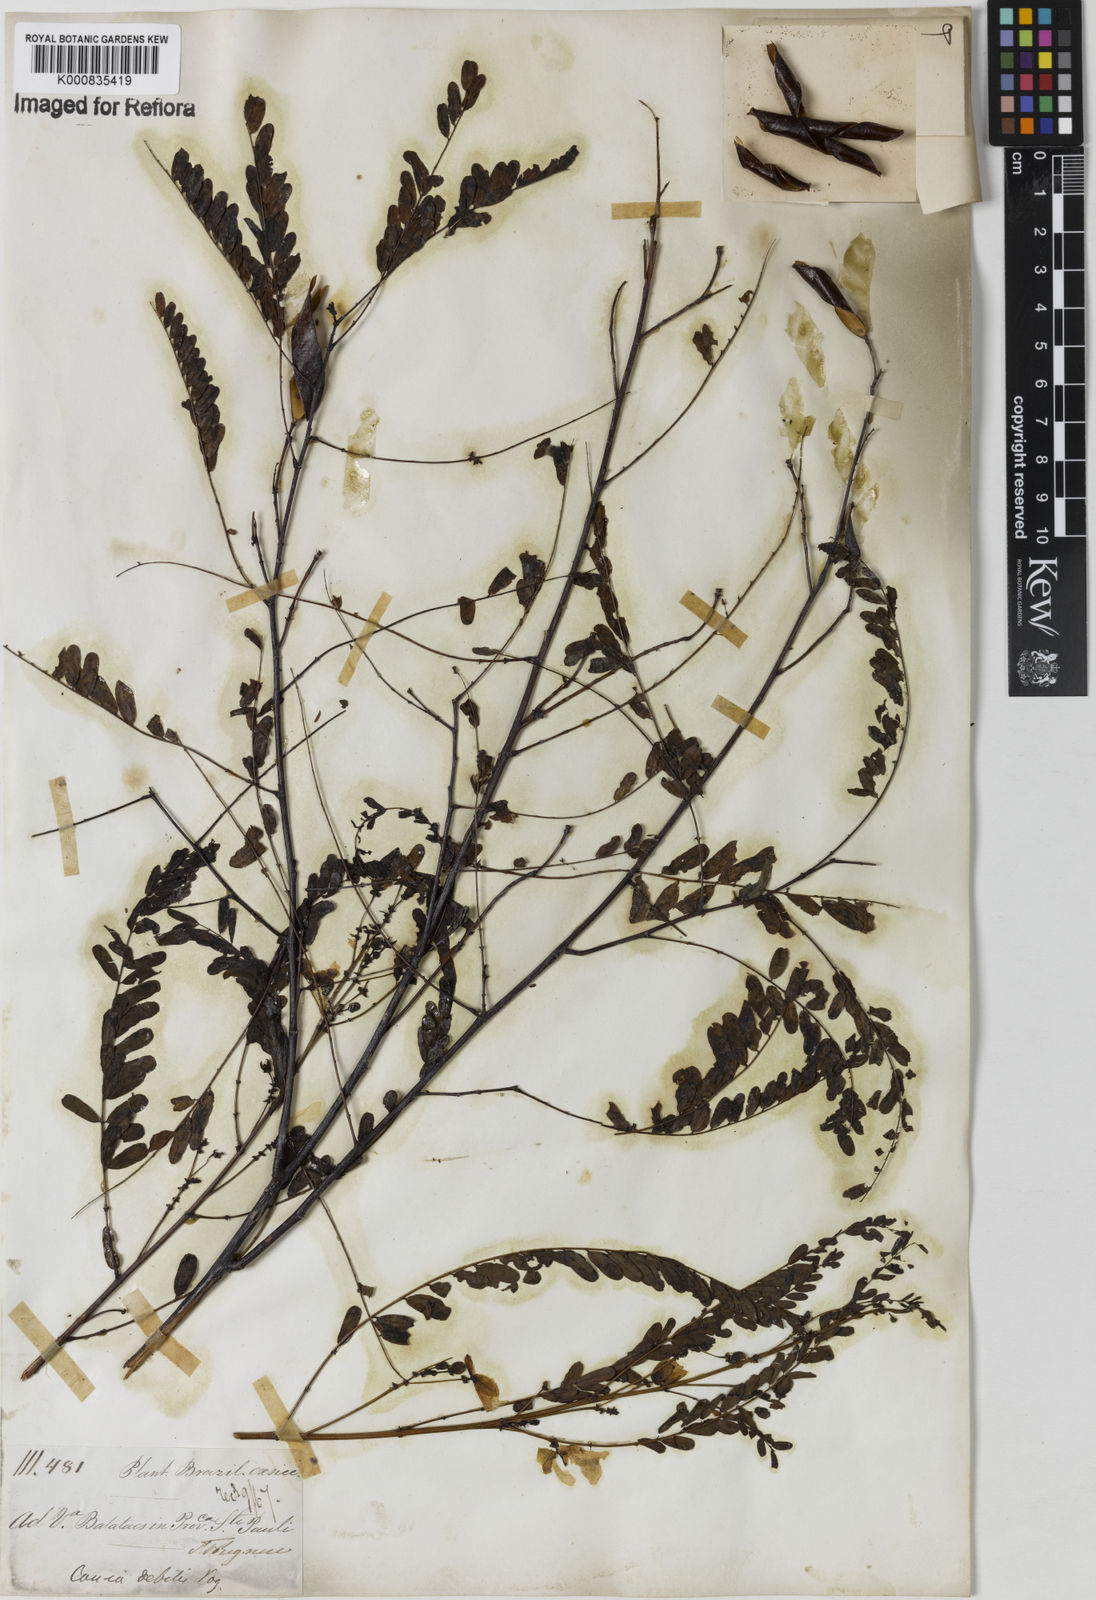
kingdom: Plantae
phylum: Tracheophyta
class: Magnoliopsida
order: Fabales
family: Fabaceae
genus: Chamaecrista
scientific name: Chamaecrista debilis
